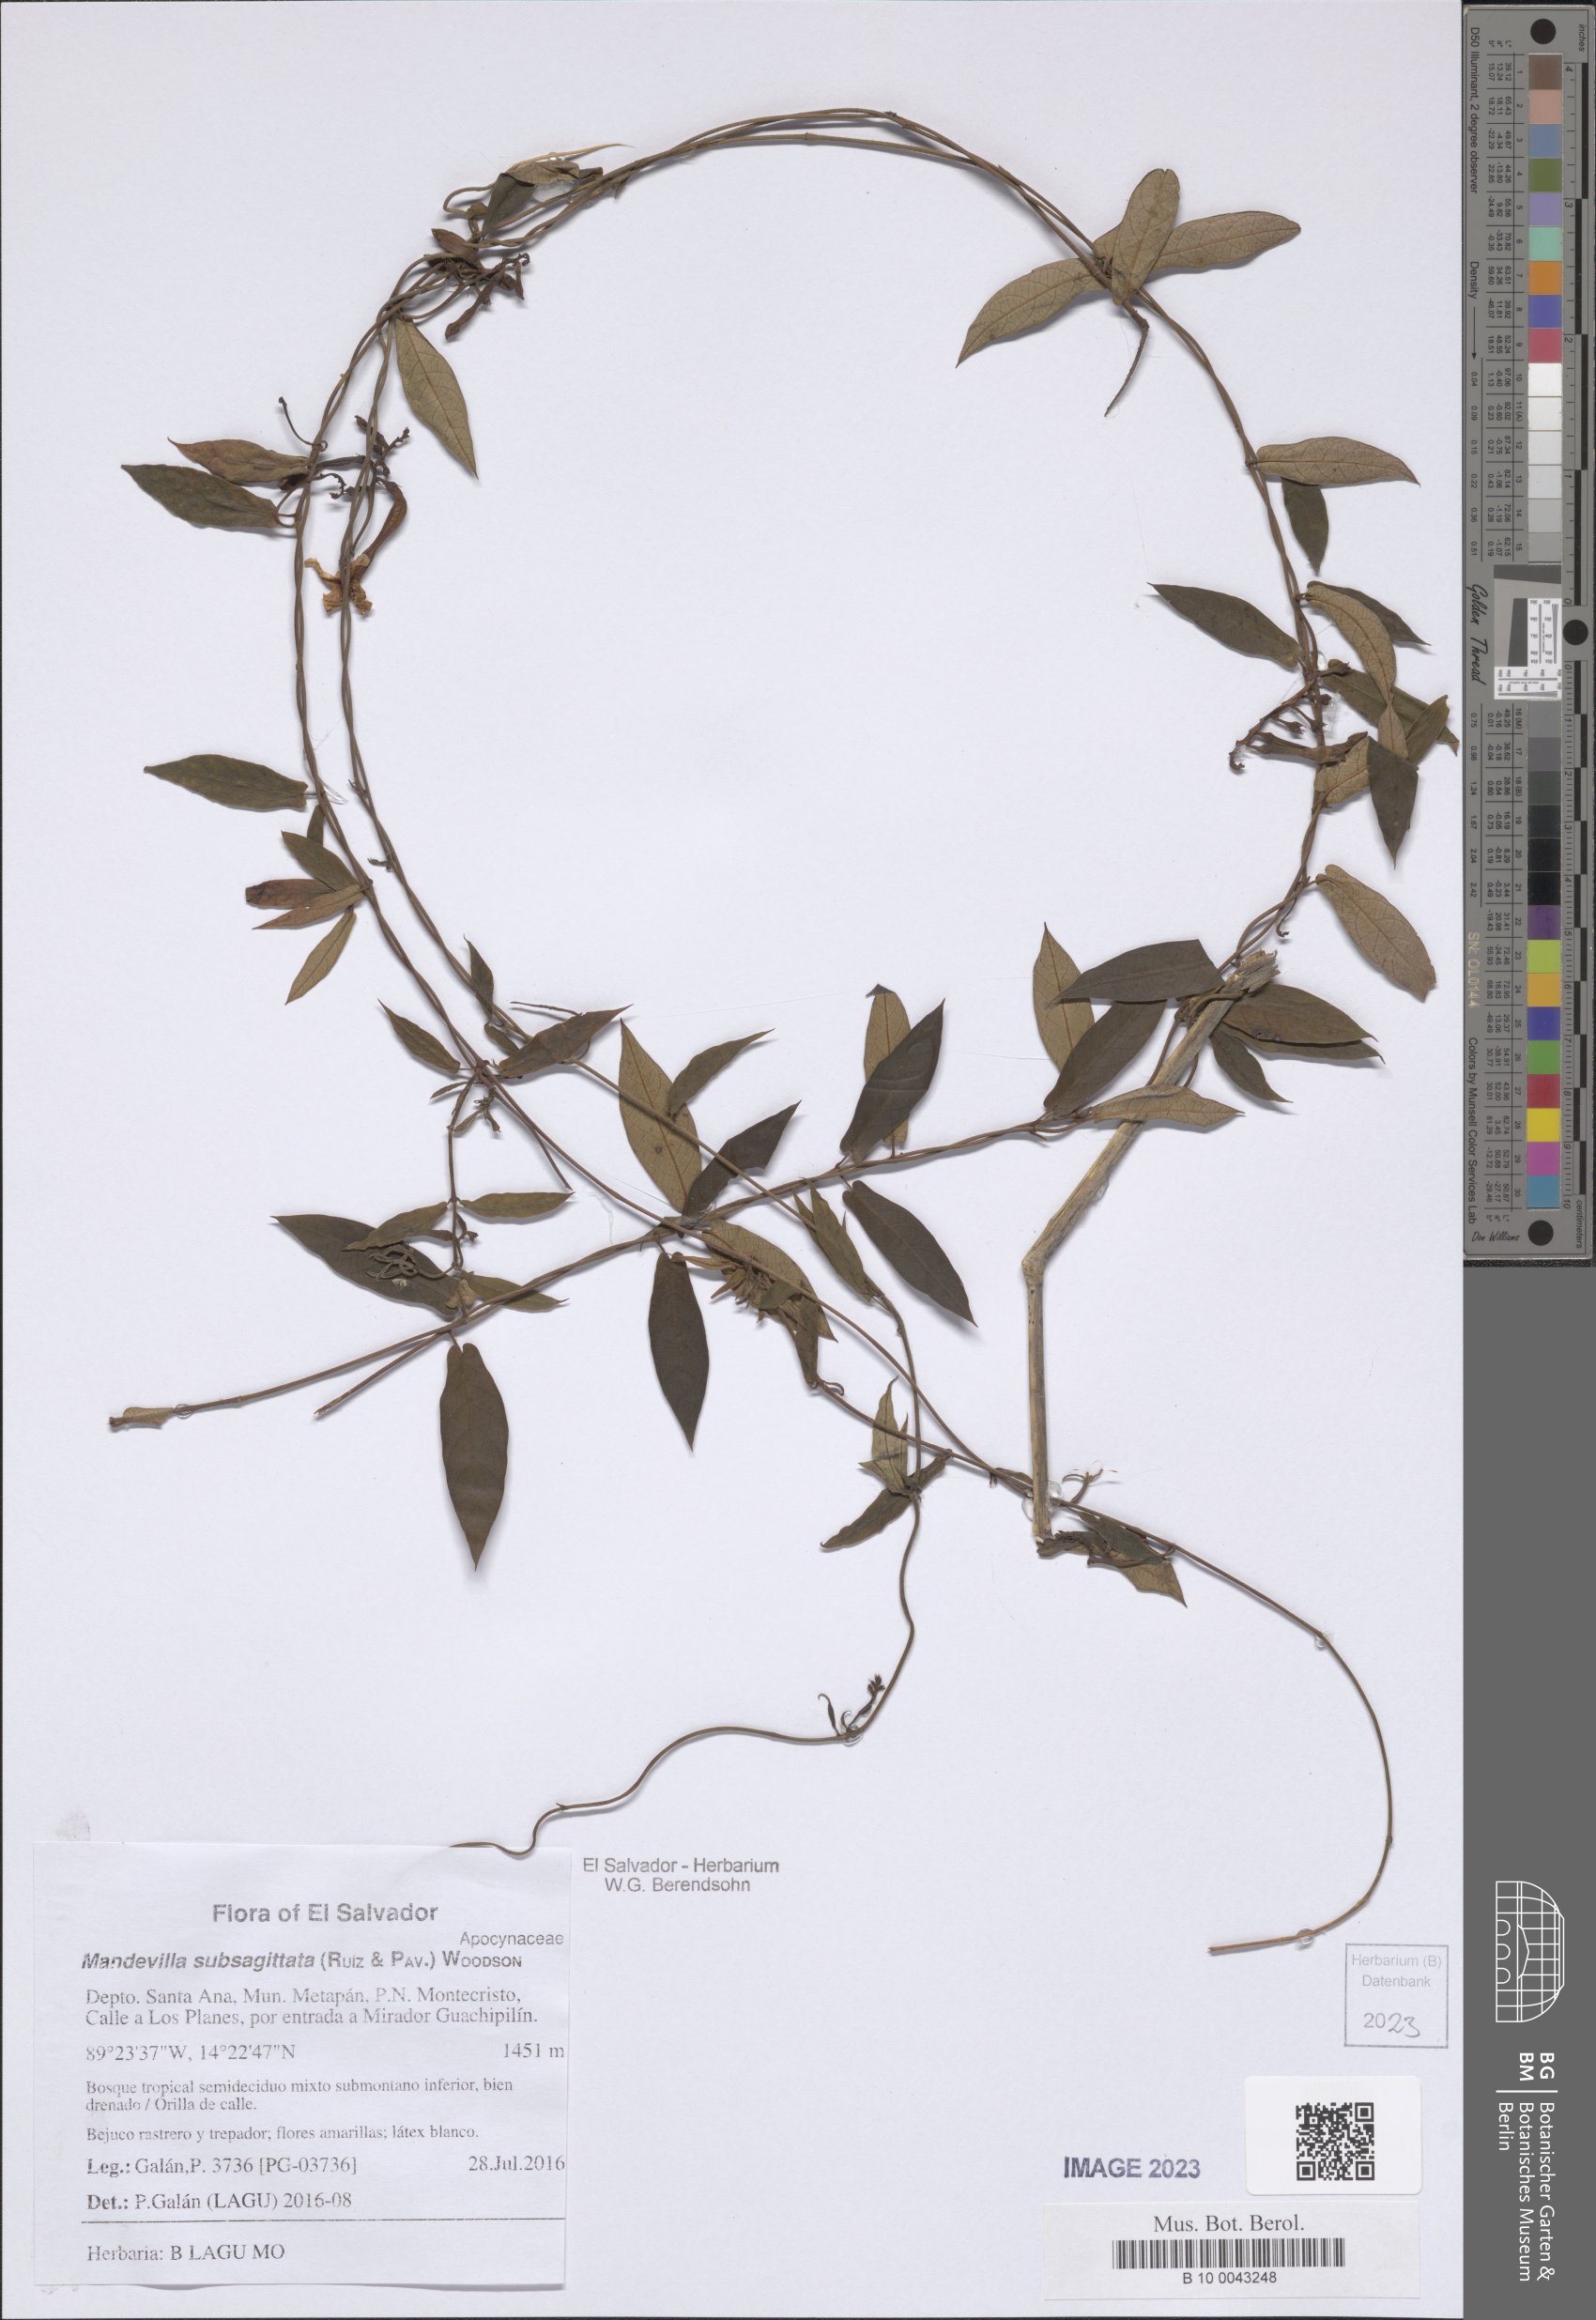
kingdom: Plantae
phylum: Tracheophyta
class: Magnoliopsida
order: Gentianales
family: Apocynaceae
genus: Mandevilla
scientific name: Mandevilla subsagittata
